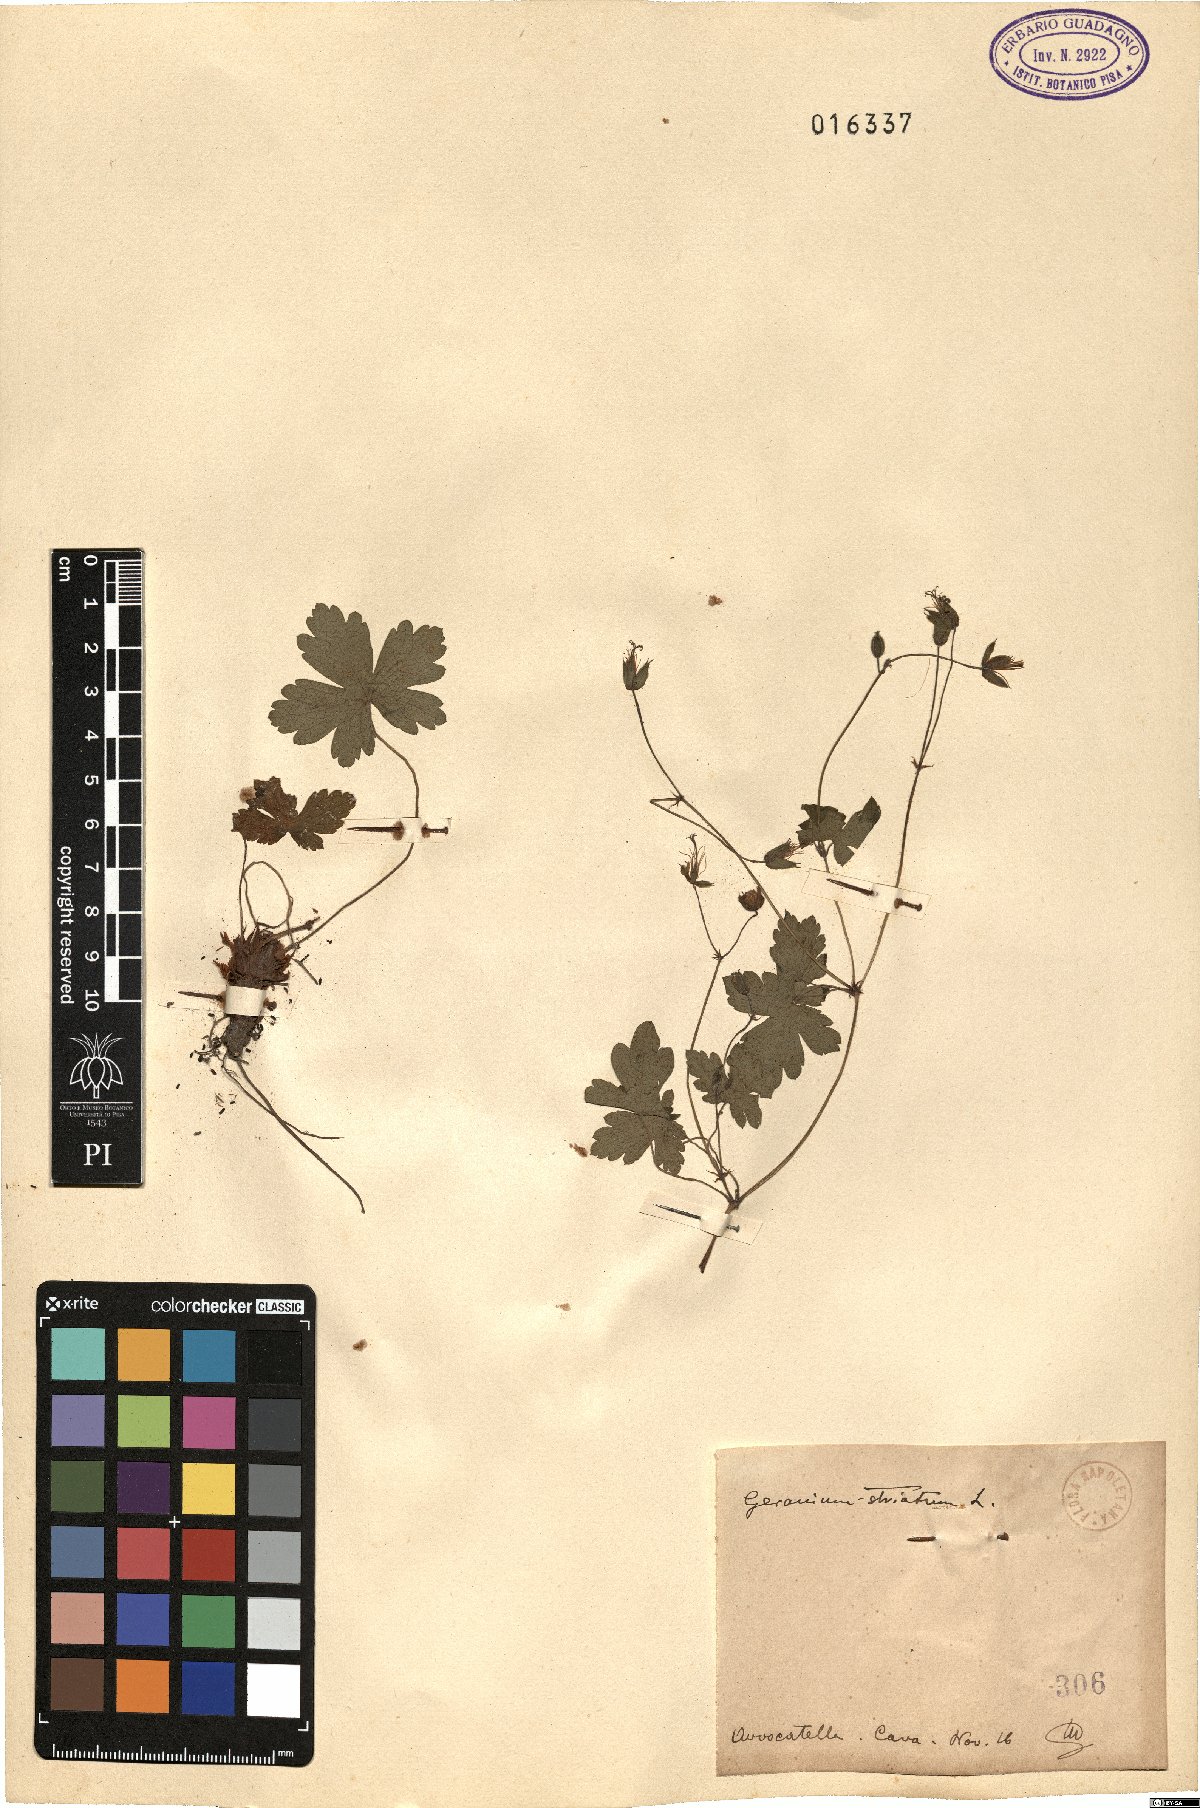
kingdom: Plantae
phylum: Tracheophyta
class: Magnoliopsida
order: Geraniales
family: Geraniaceae
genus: Geranium
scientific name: Geranium versicolor
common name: Pencilled crane's-bill
